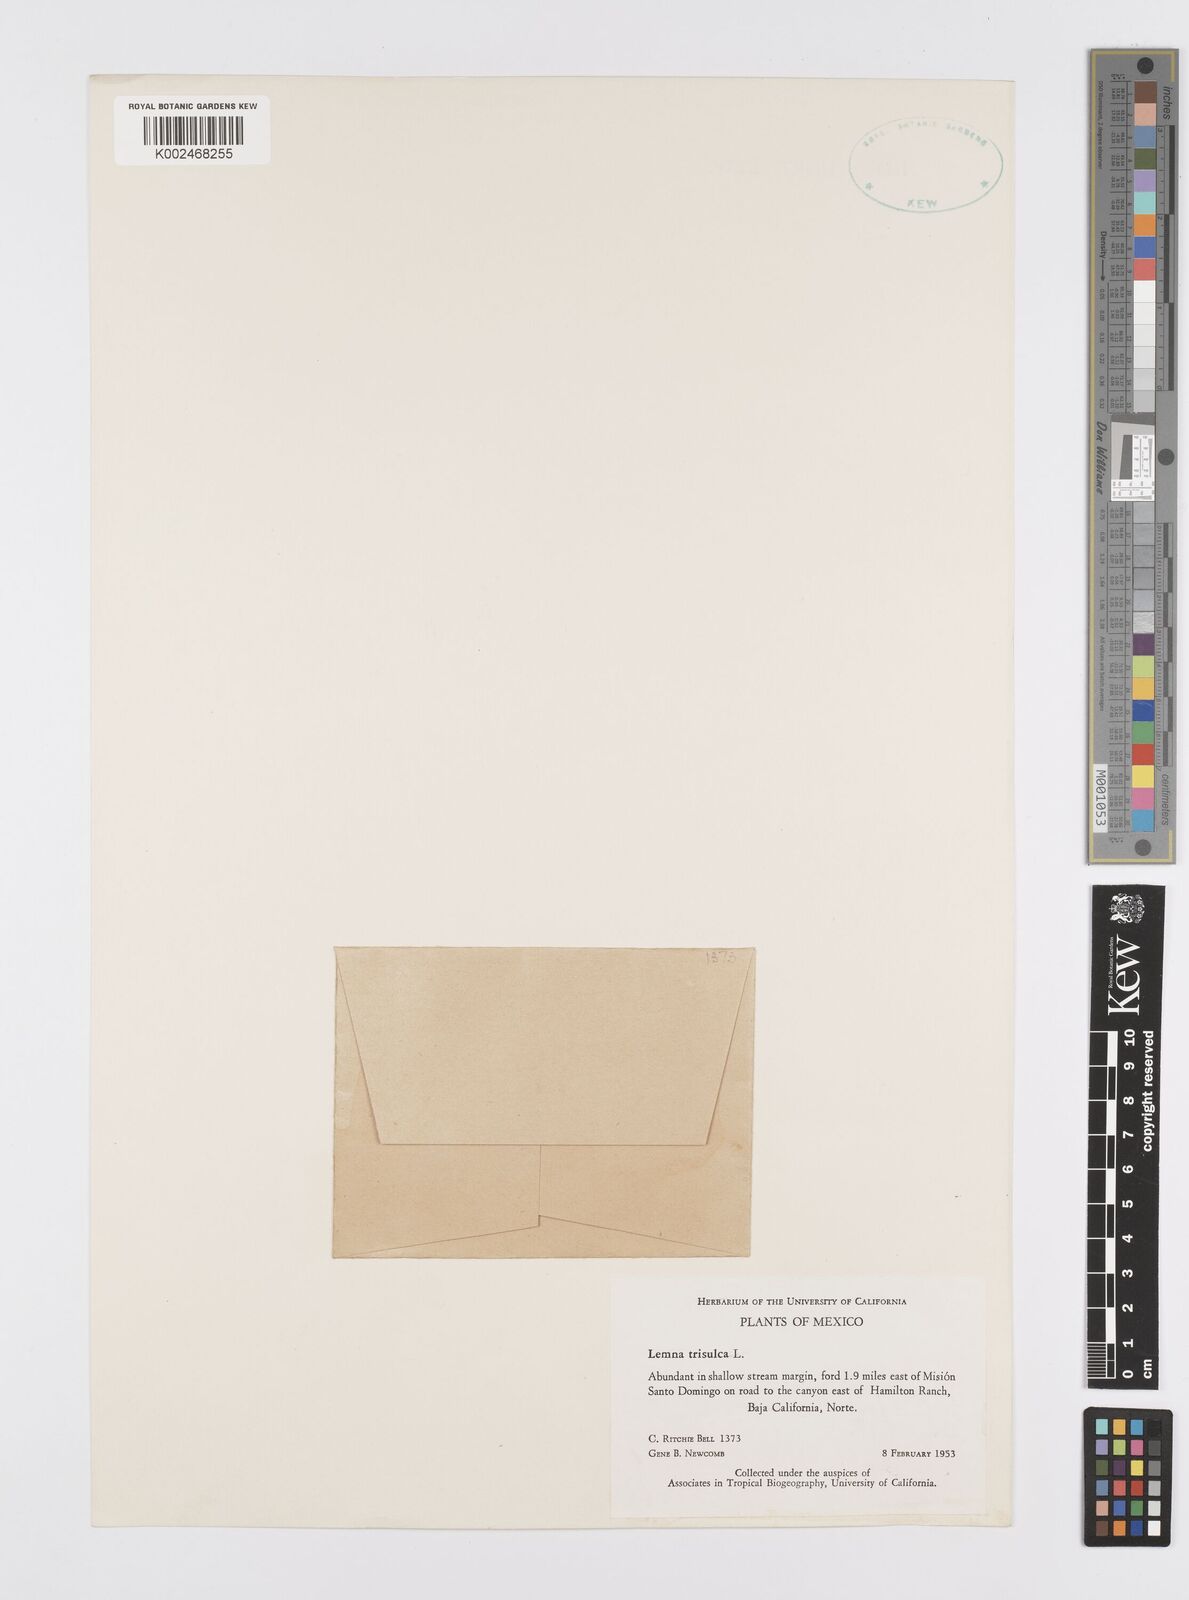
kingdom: Plantae
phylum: Tracheophyta
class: Liliopsida
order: Alismatales
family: Araceae
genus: Lemna
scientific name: Lemna trisulca
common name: Ivy-leaved duckweed
